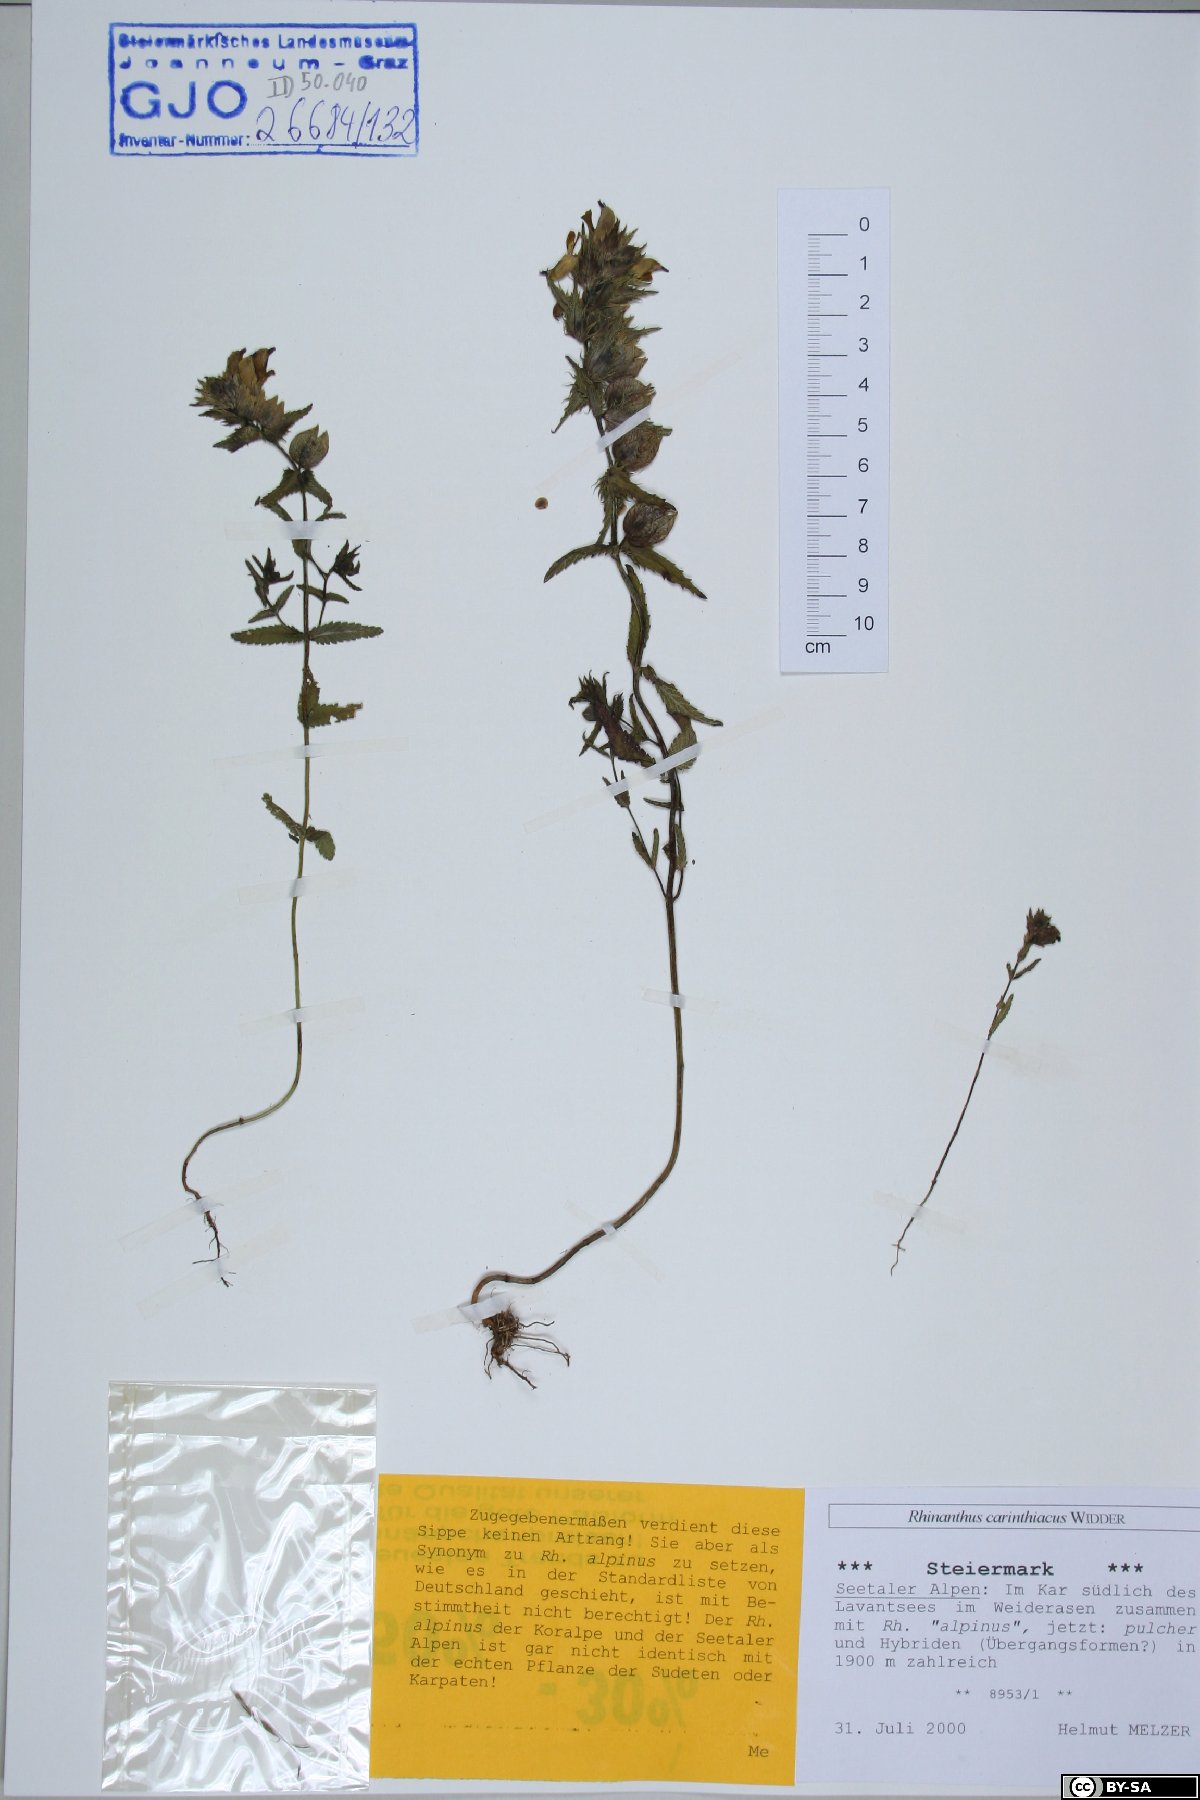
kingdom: Plantae
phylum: Tracheophyta
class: Magnoliopsida
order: Lamiales
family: Orobanchaceae
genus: Rhinanthus
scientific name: Rhinanthus carinthiacus
